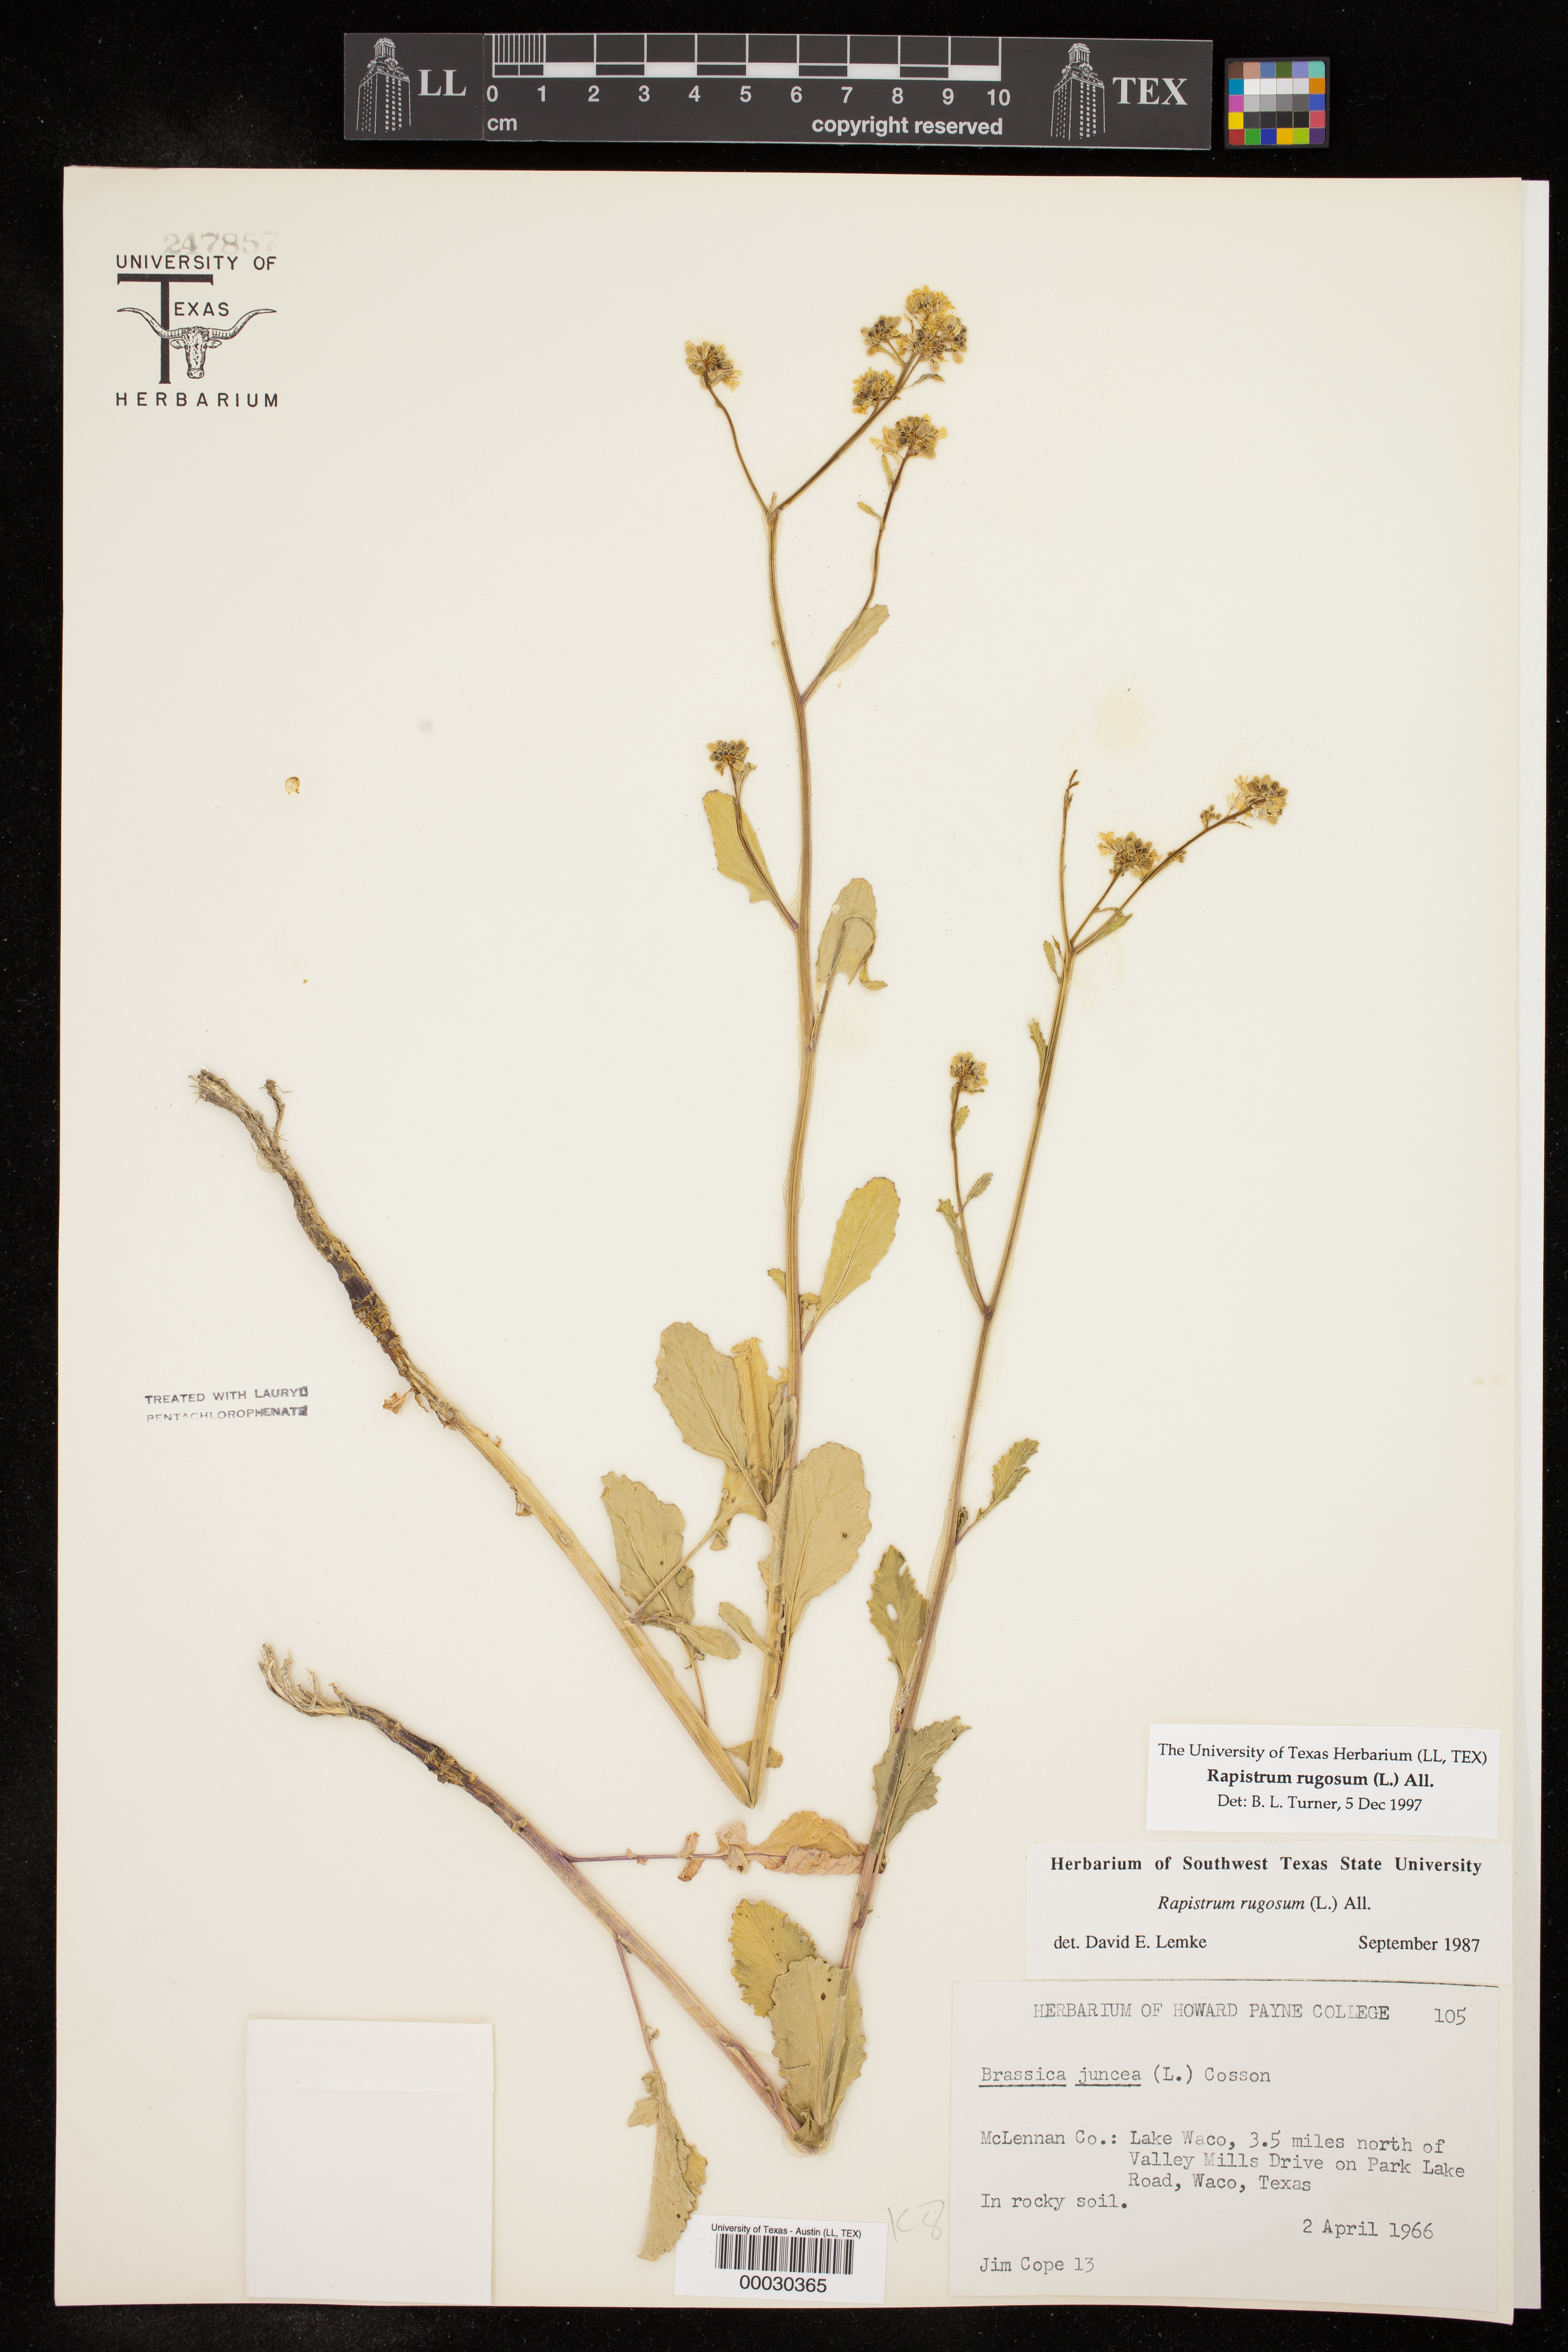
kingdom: Plantae
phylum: Tracheophyta
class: Magnoliopsida
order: Brassicales
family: Brassicaceae
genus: Rapistrum
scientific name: Rapistrum rugosum
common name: Annual bastardcabbage
